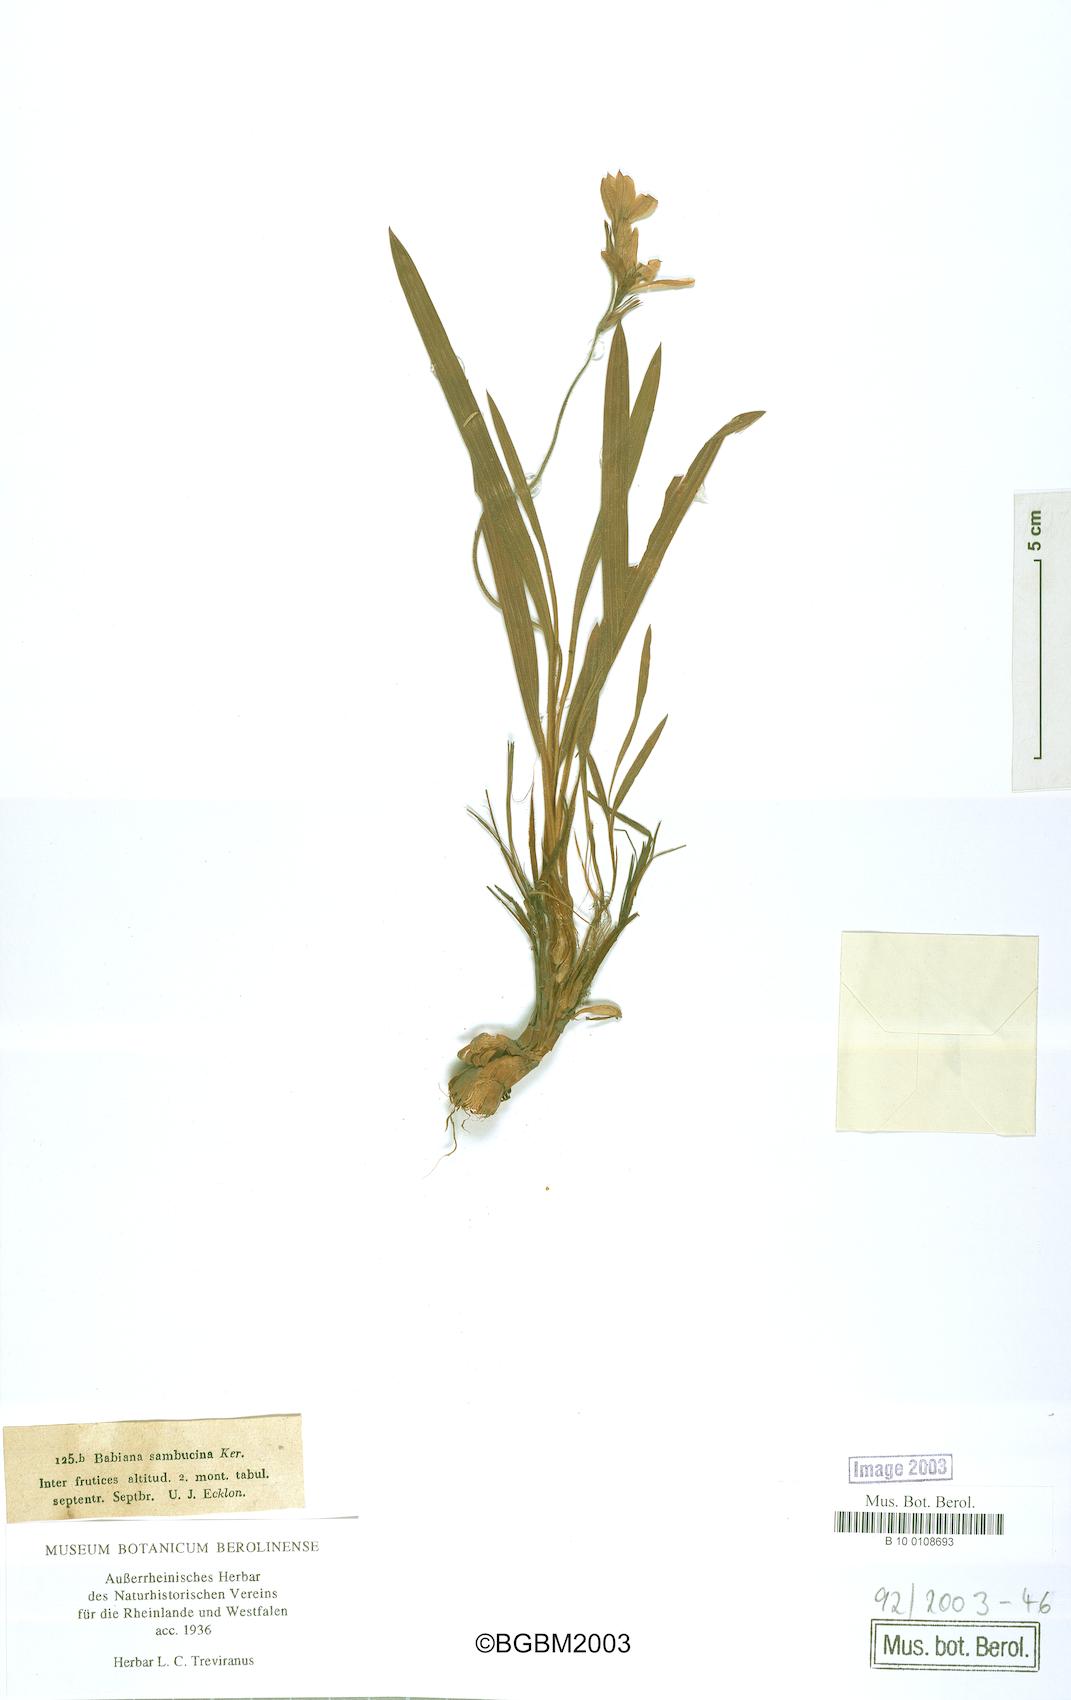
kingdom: Plantae
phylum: Tracheophyta
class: Liliopsida
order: Asparagales
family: Iridaceae
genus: Babiana
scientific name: Babiana sambucina
